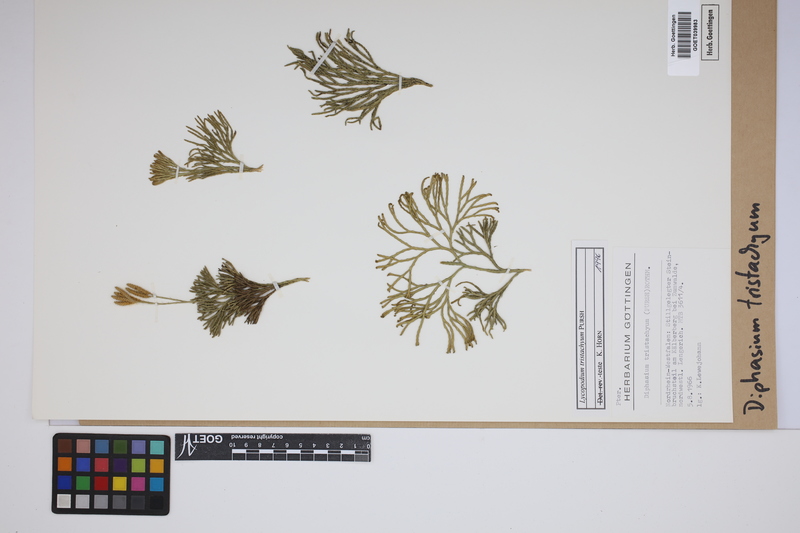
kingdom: Plantae
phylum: Tracheophyta
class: Lycopodiopsida
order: Lycopodiales
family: Lycopodiaceae
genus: Diphasiastrum
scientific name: Diphasiastrum tristachyum
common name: Blue ground-cedar
